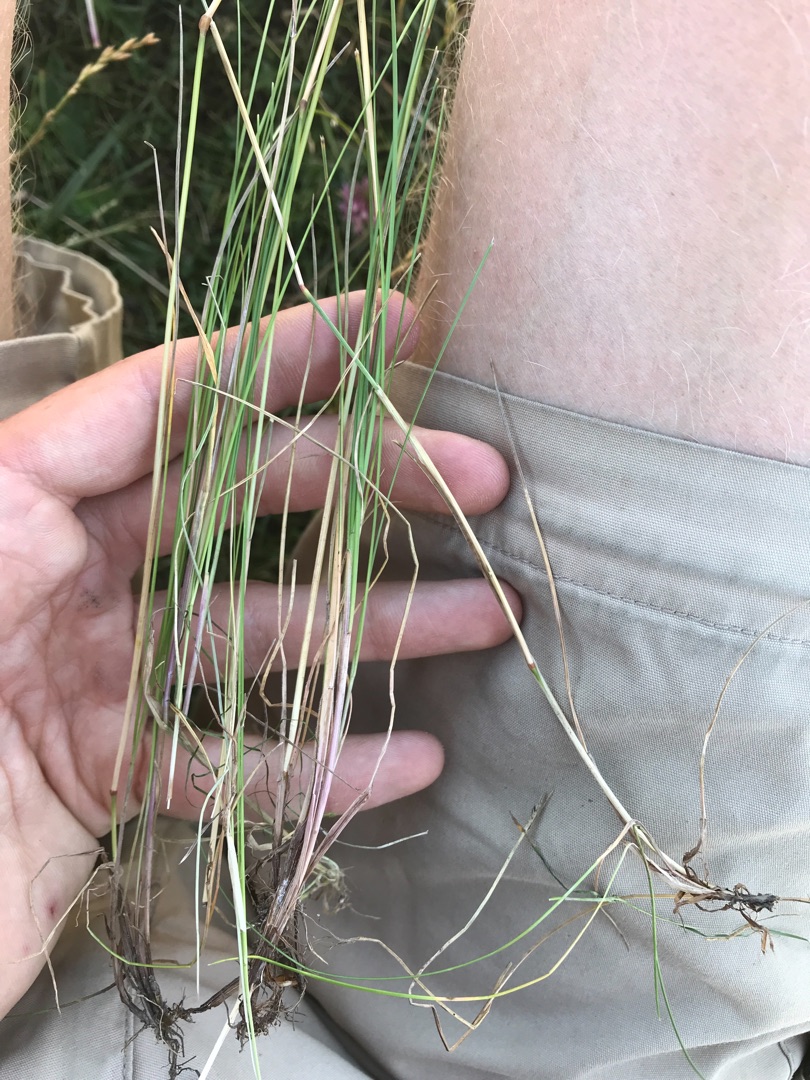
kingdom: Plantae
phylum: Tracheophyta
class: Liliopsida
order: Poales
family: Poaceae
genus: Festuca
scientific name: Festuca rubra
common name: Rød svingel
